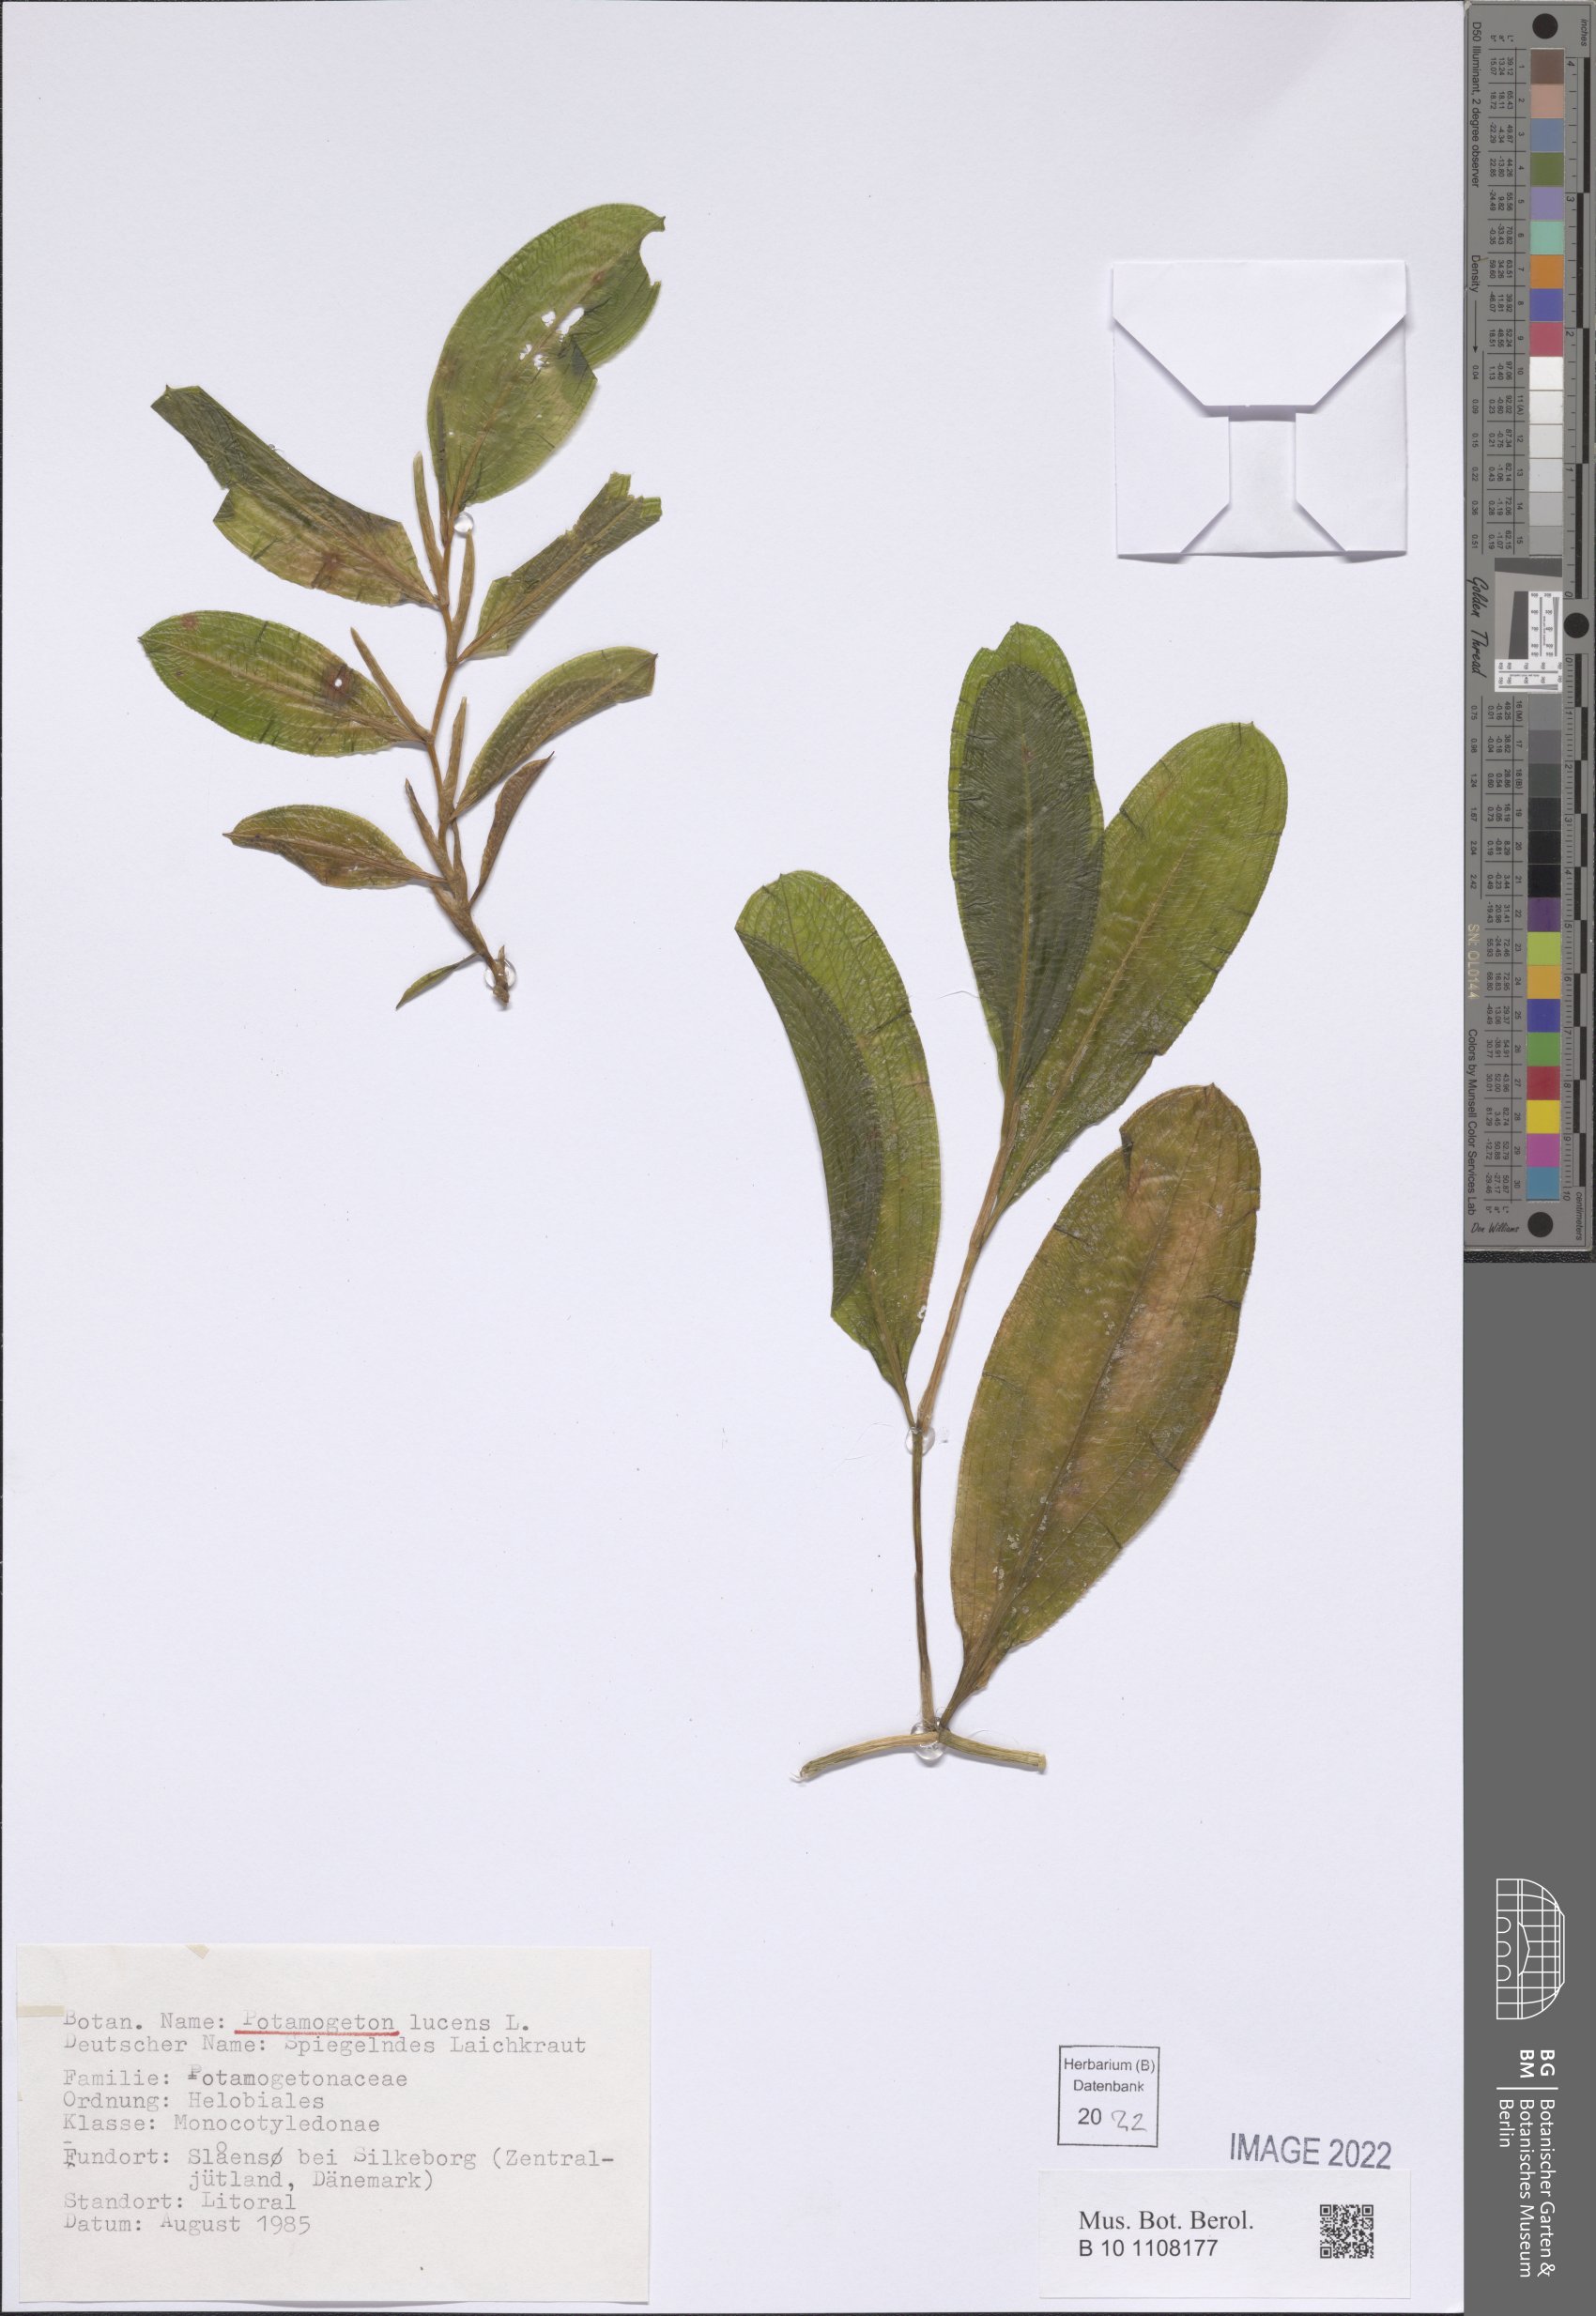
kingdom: Plantae
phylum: Tracheophyta
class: Liliopsida
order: Alismatales
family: Potamogetonaceae
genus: Potamogeton
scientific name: Potamogeton lucens
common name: Shining pondweed
